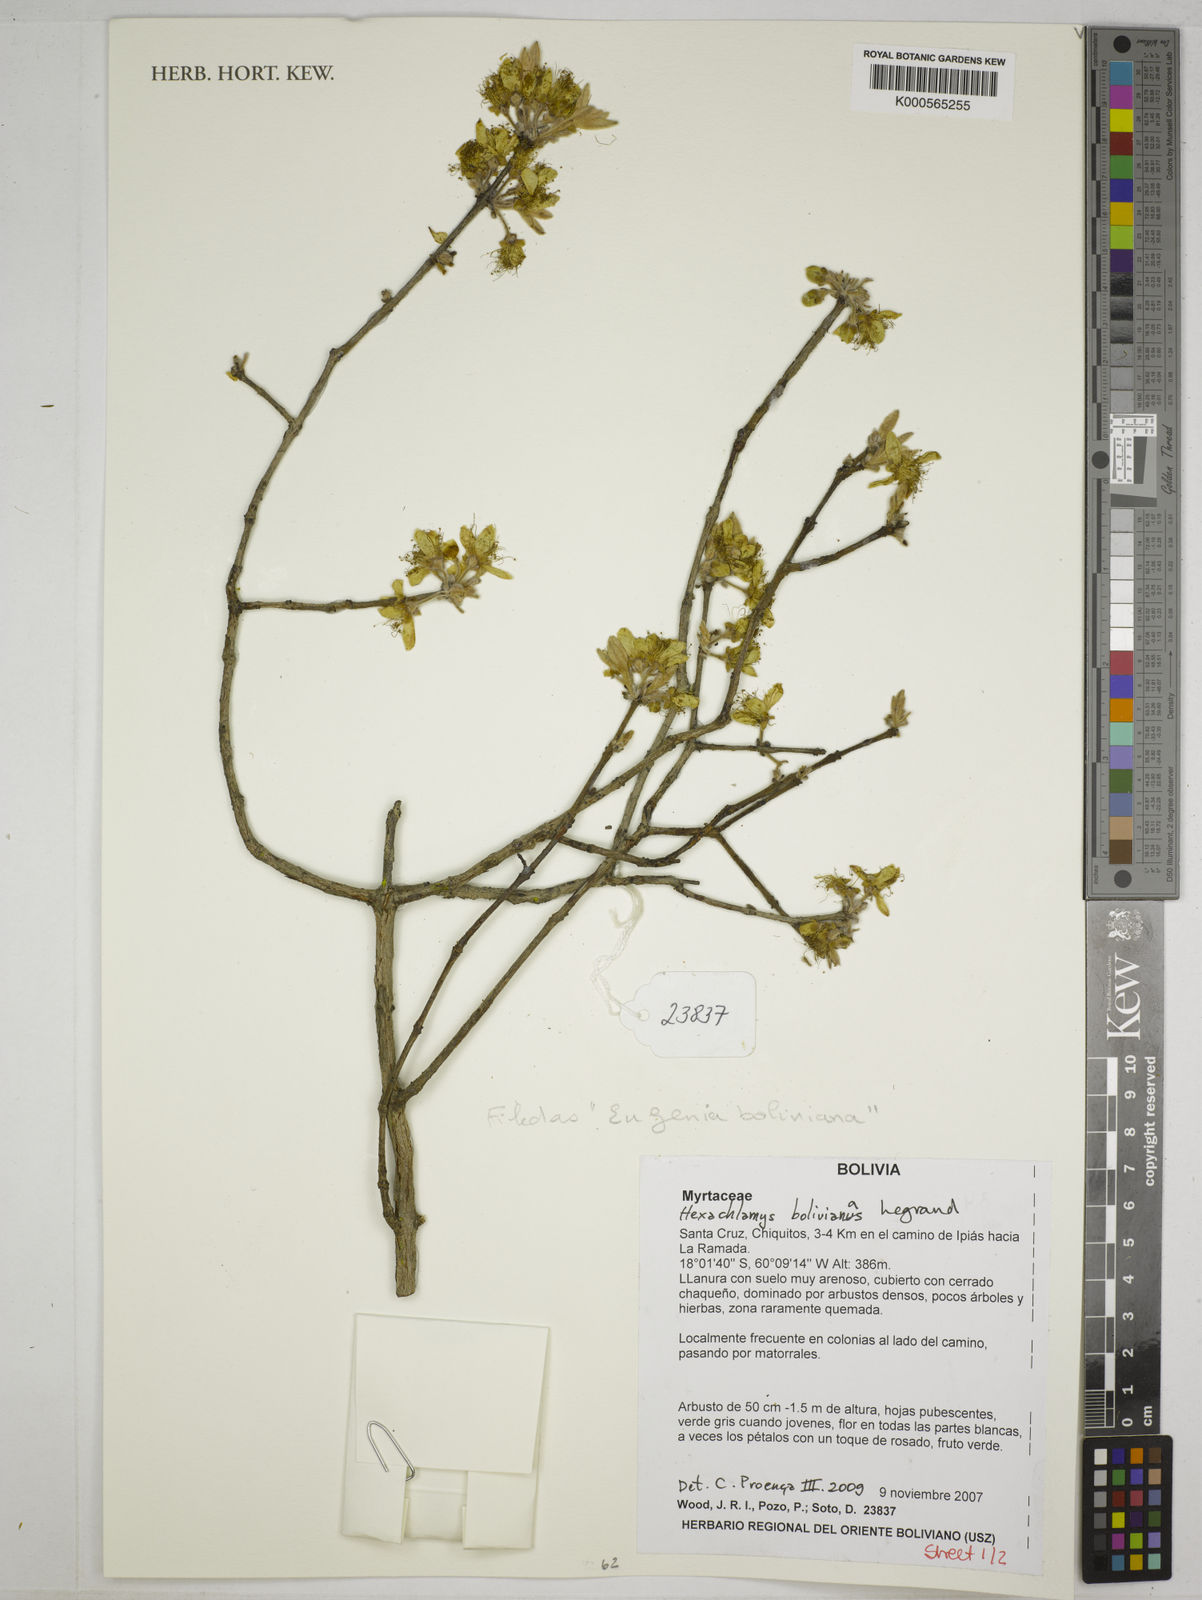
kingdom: Plantae
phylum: Tracheophyta
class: Magnoliopsida
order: Myrtales
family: Myrtaceae
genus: Eugenia
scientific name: Eugenia
